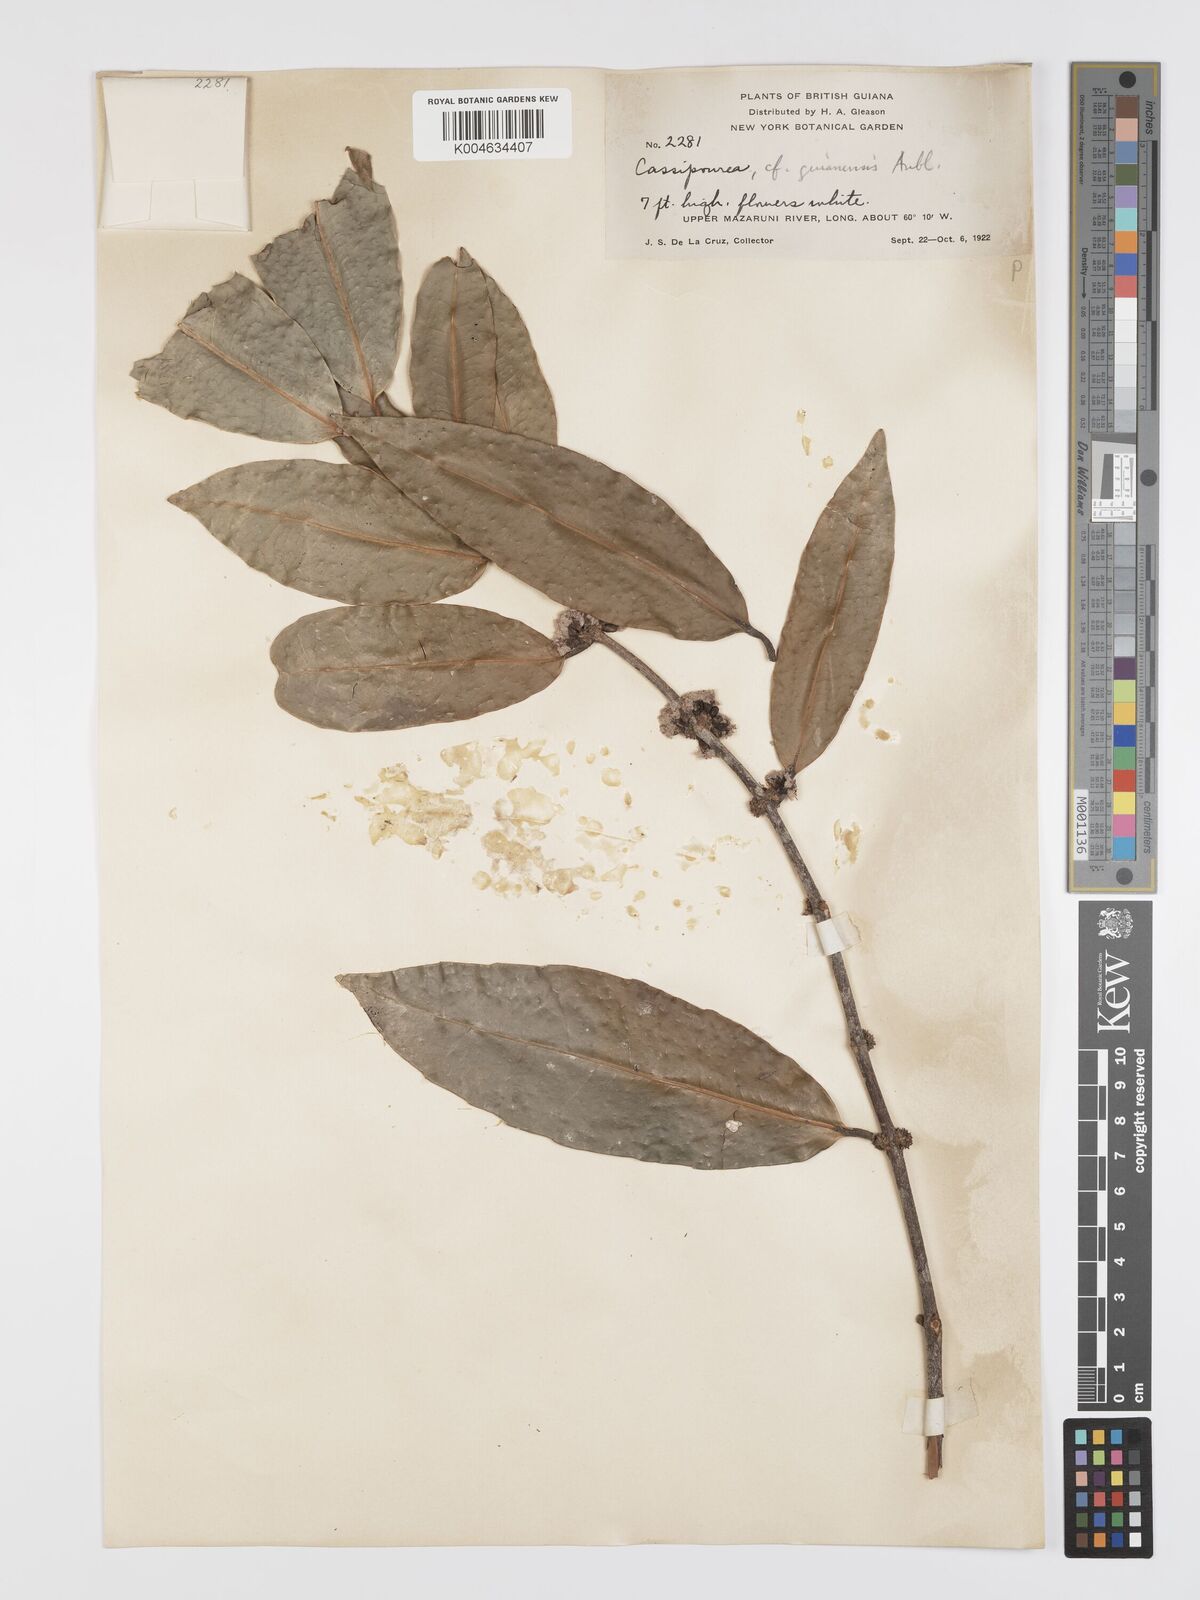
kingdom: Plantae
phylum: Tracheophyta
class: Magnoliopsida
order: Malpighiales
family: Rhizophoraceae
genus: Cassipourea
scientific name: Cassipourea guianensis
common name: Bastard waterwood
